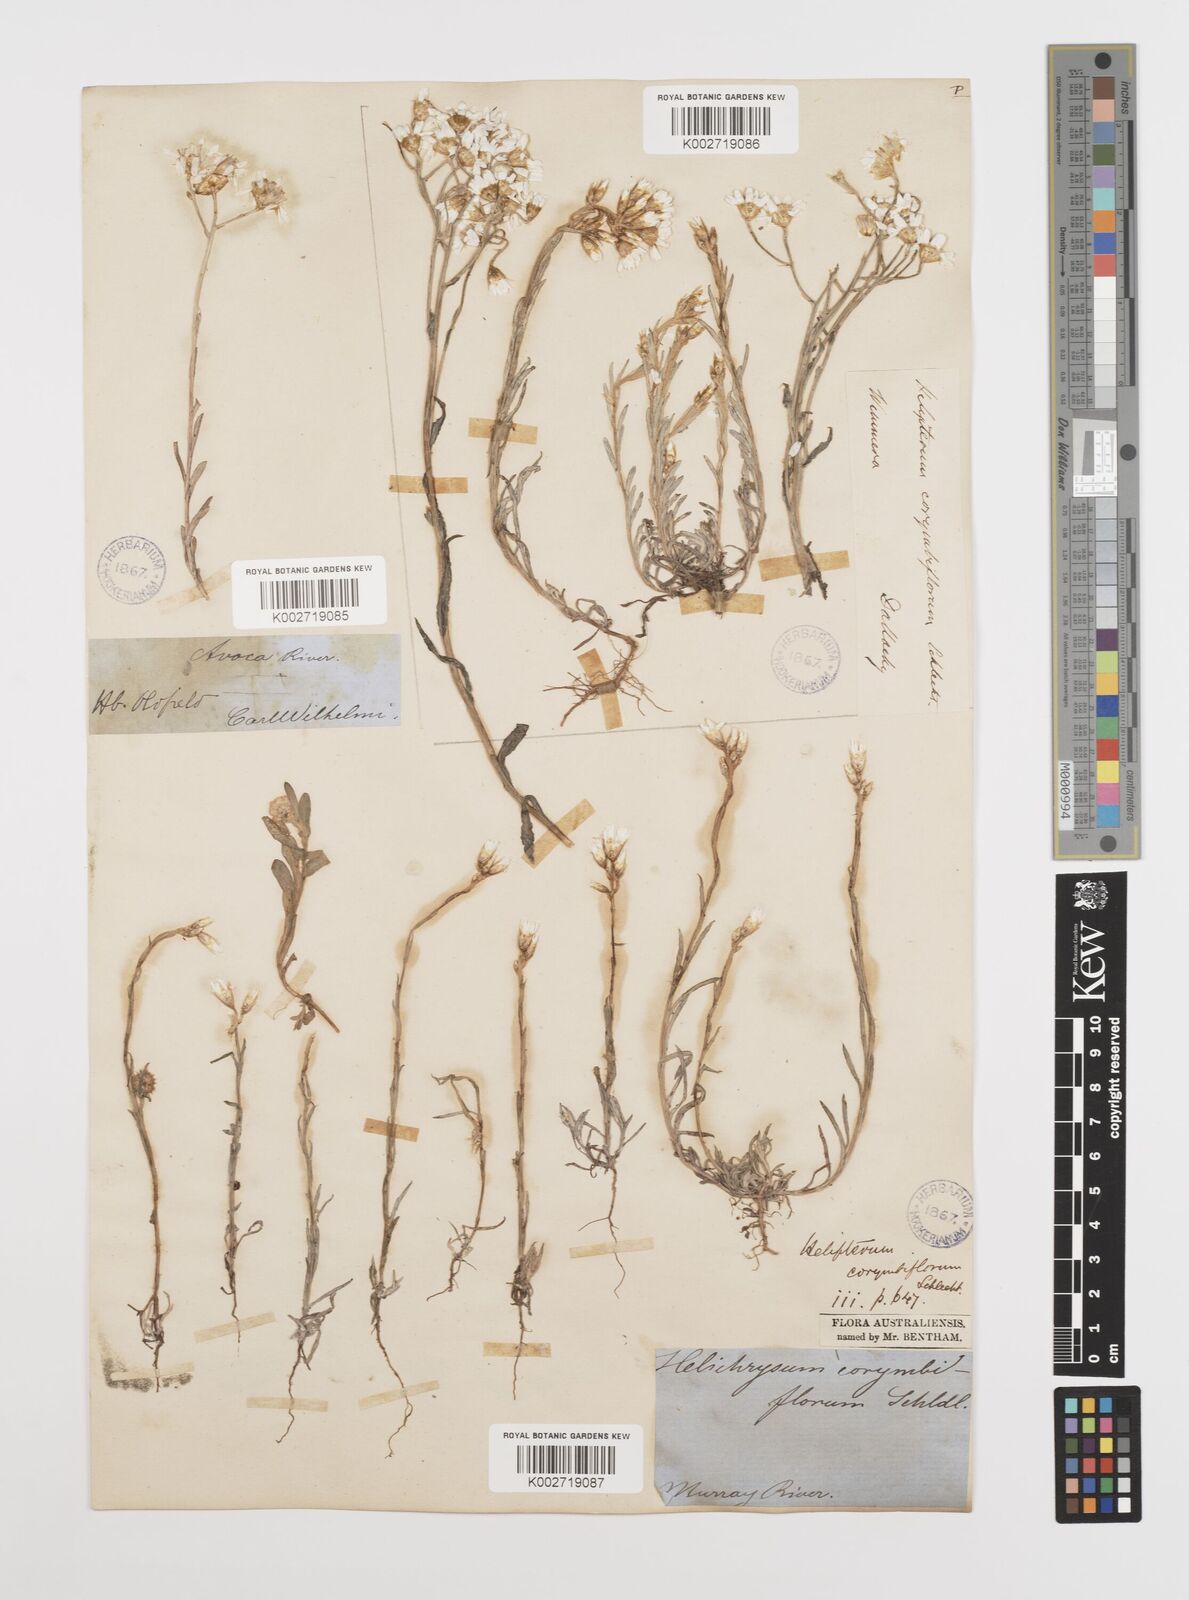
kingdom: Plantae
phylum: Tracheophyta
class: Magnoliopsida
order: Asterales
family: Asteraceae
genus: Rhodanthe
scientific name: Rhodanthe corymbiflora
